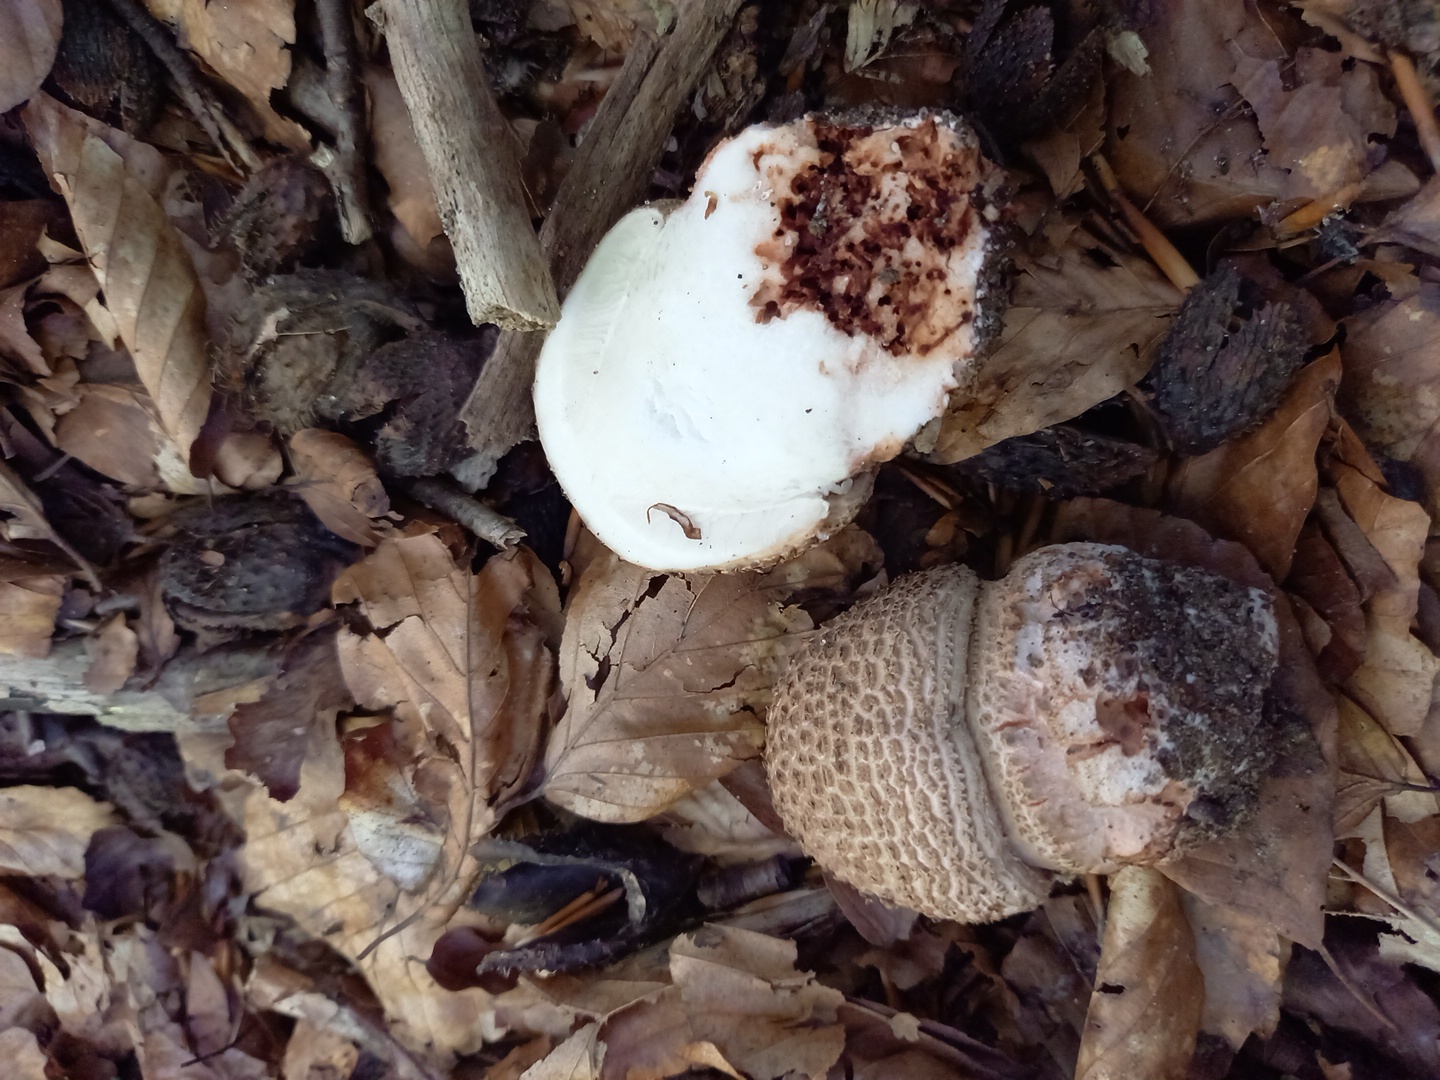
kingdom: Fungi
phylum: Basidiomycota
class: Agaricomycetes
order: Agaricales
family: Amanitaceae
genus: Amanita
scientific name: Amanita rubescens
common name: rødmende fluesvamp
